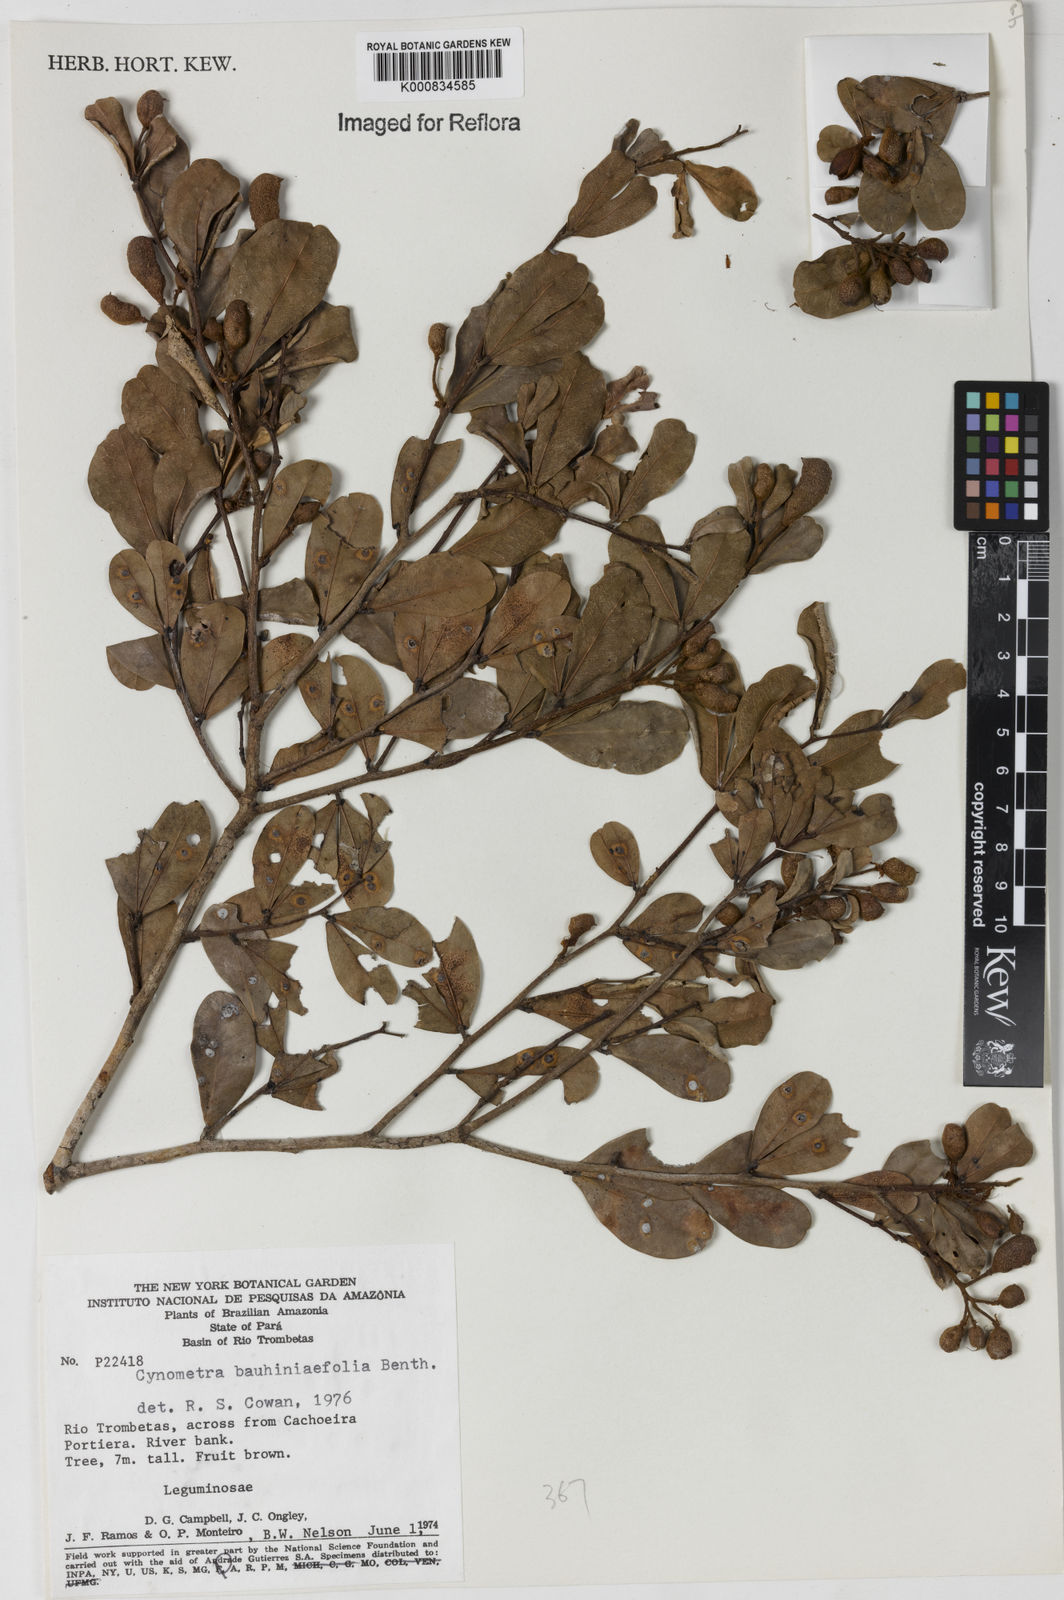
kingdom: Plantae
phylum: Tracheophyta
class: Magnoliopsida
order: Fabales
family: Fabaceae
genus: Cynometra
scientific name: Cynometra bauhiniifolia
